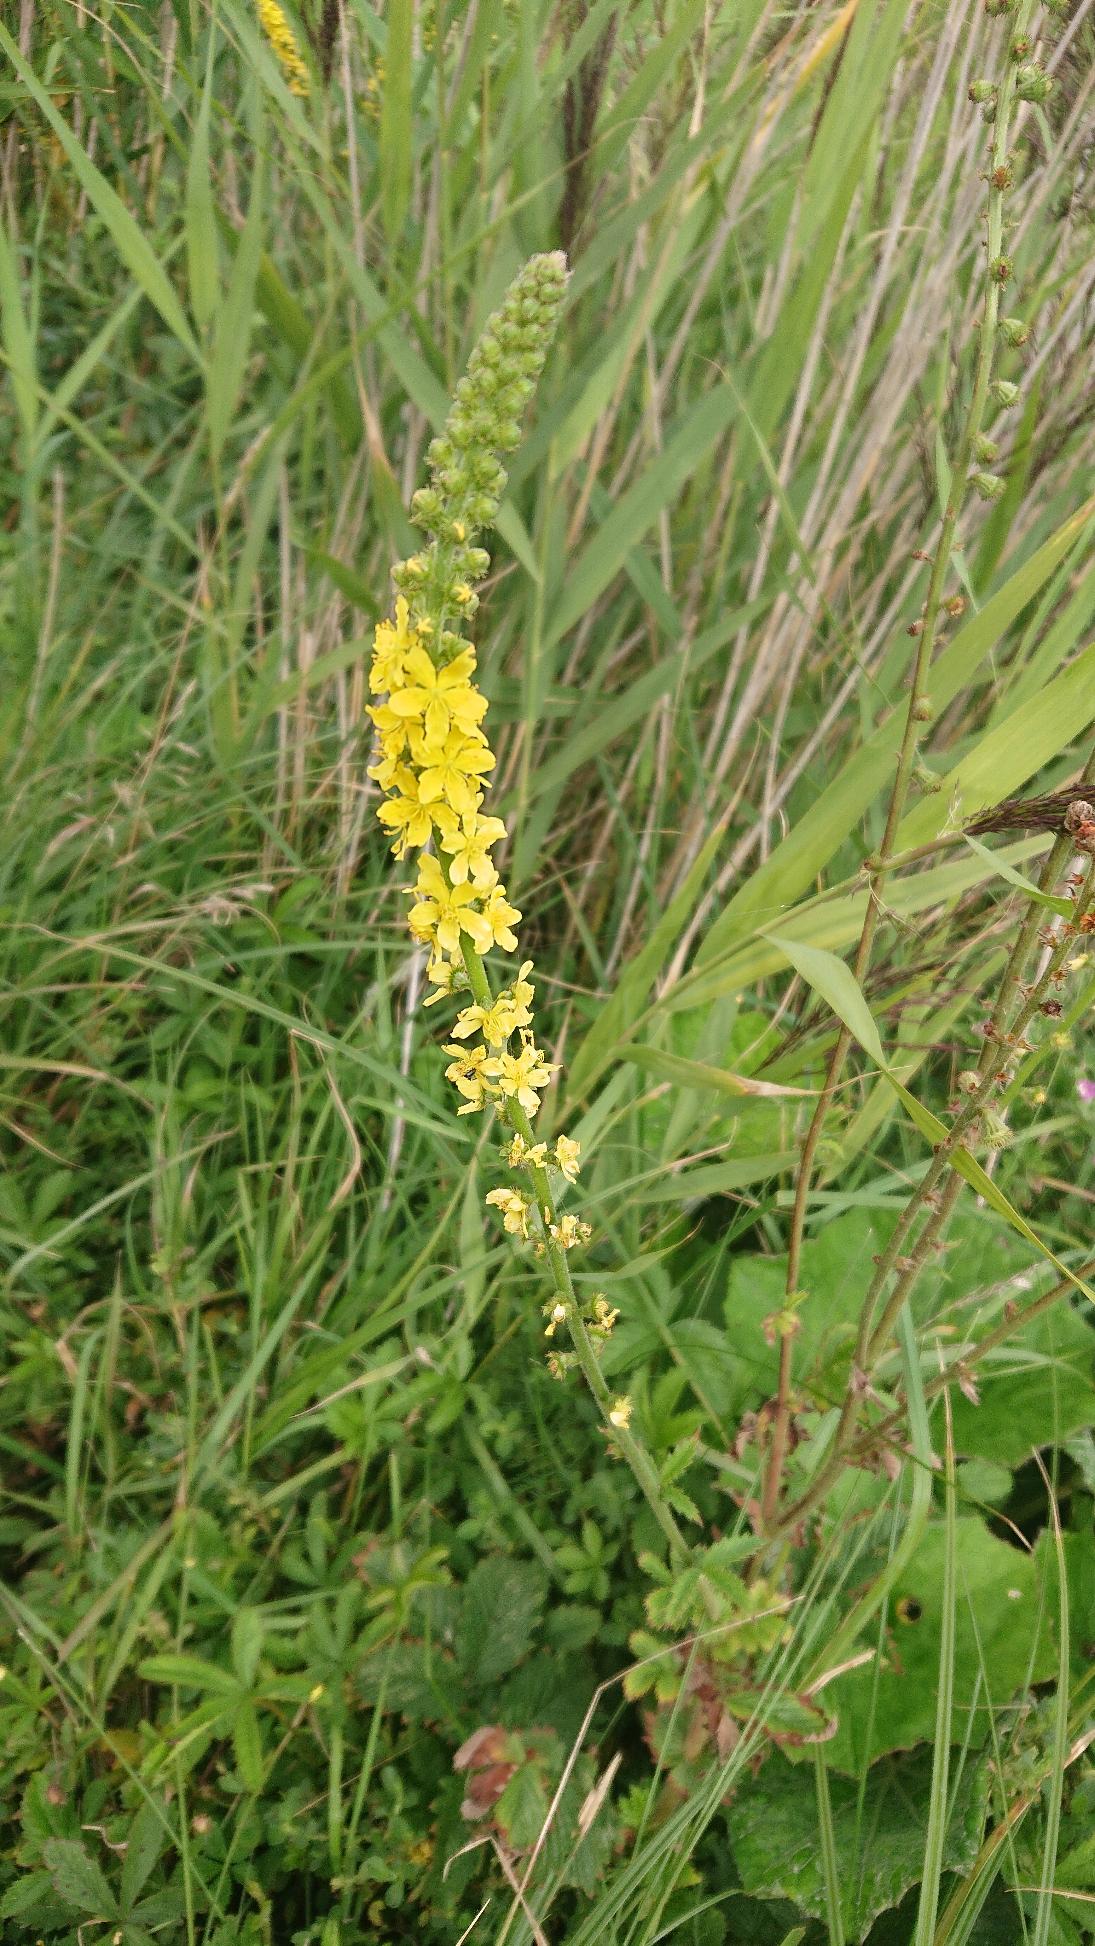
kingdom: Plantae
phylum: Tracheophyta
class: Magnoliopsida
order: Rosales
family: Rosaceae
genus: Agrimonia
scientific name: Agrimonia eupatoria
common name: Almindelig agermåne
